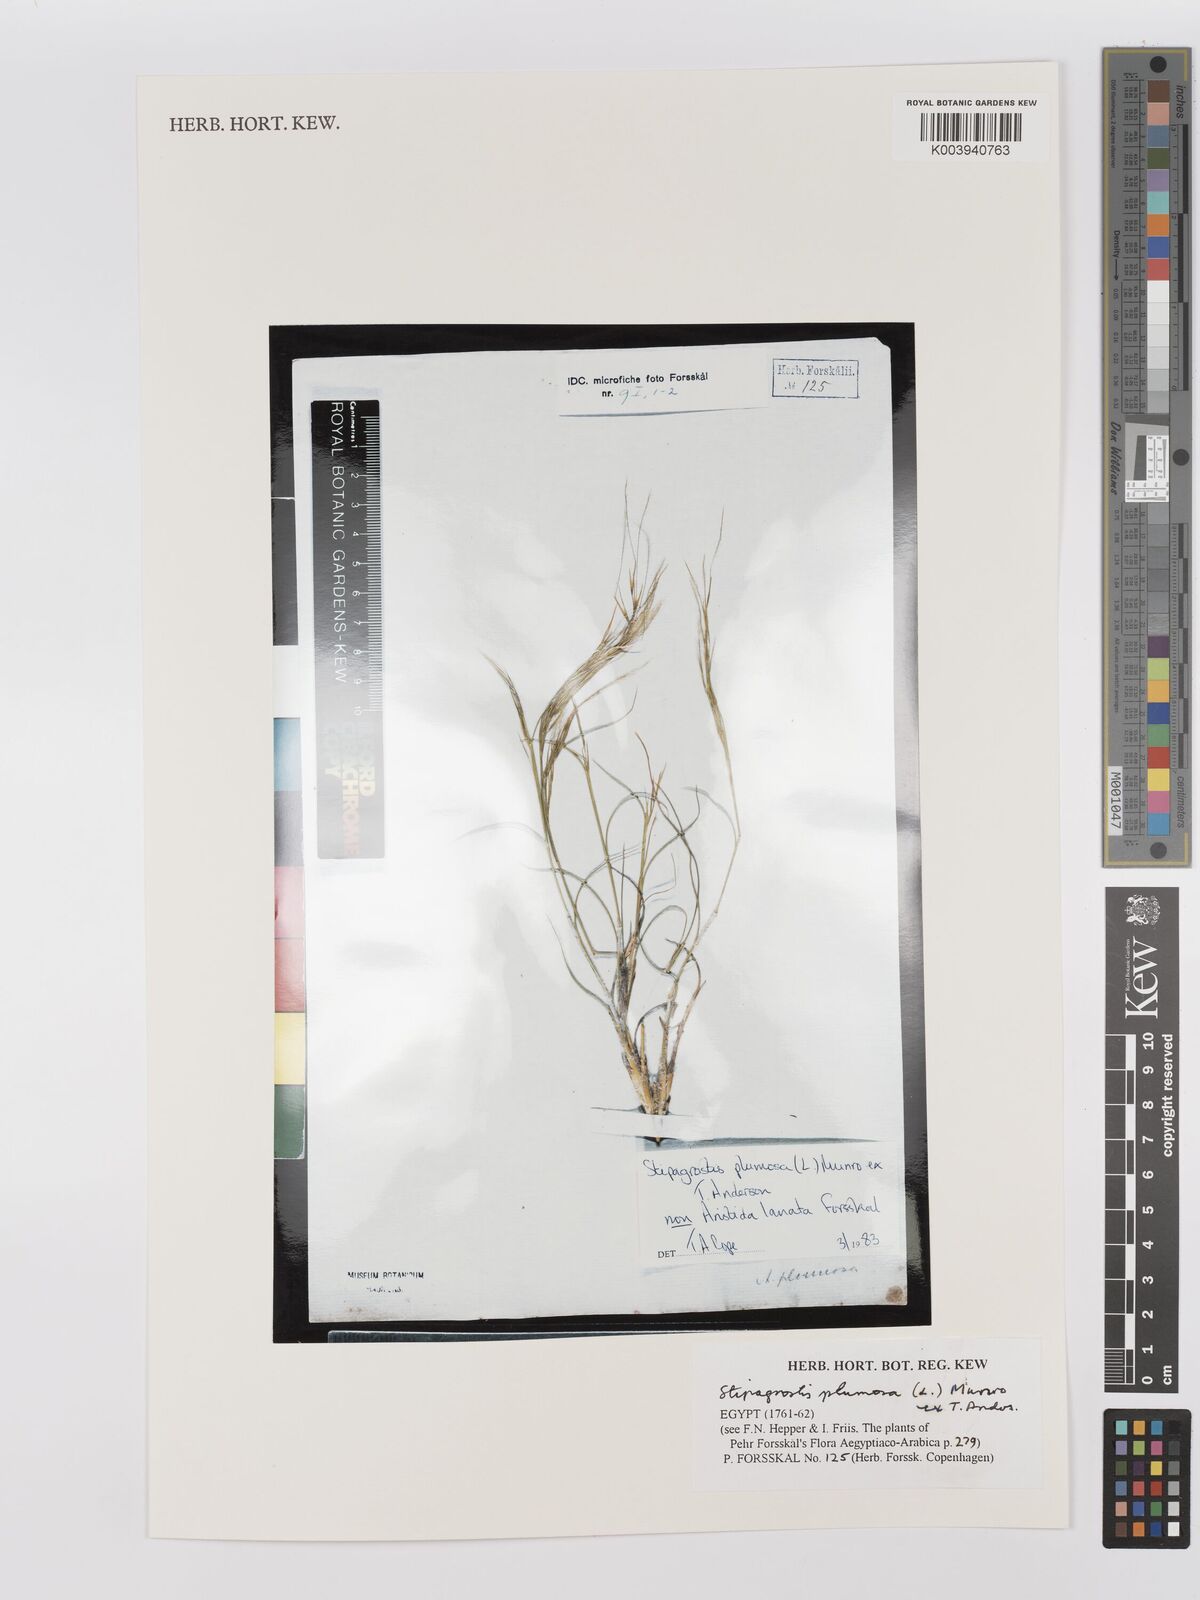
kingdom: Plantae
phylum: Tracheophyta
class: Liliopsida
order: Poales
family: Poaceae
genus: Stipagrostis
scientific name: Stipagrostis plumosa
